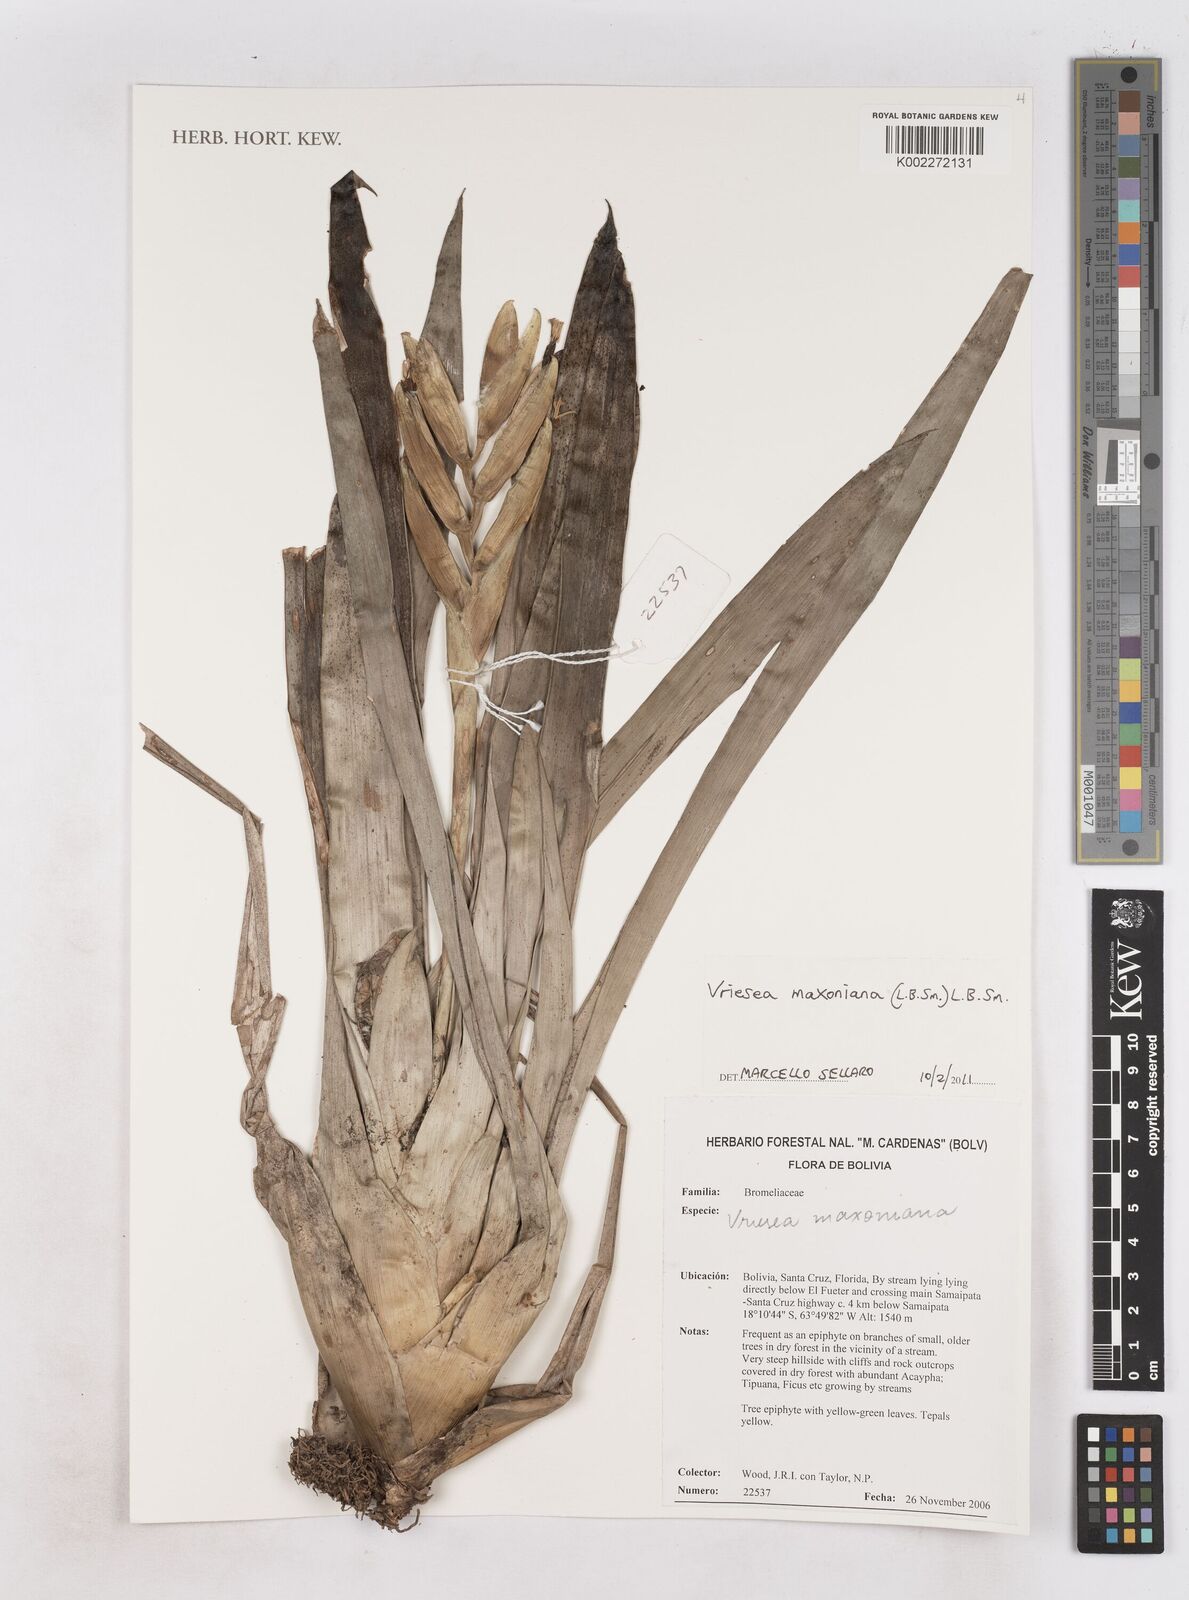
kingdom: Plantae
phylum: Tracheophyta
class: Liliopsida
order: Poales
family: Bromeliaceae
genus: Vriesea
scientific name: Vriesea maxoniana
